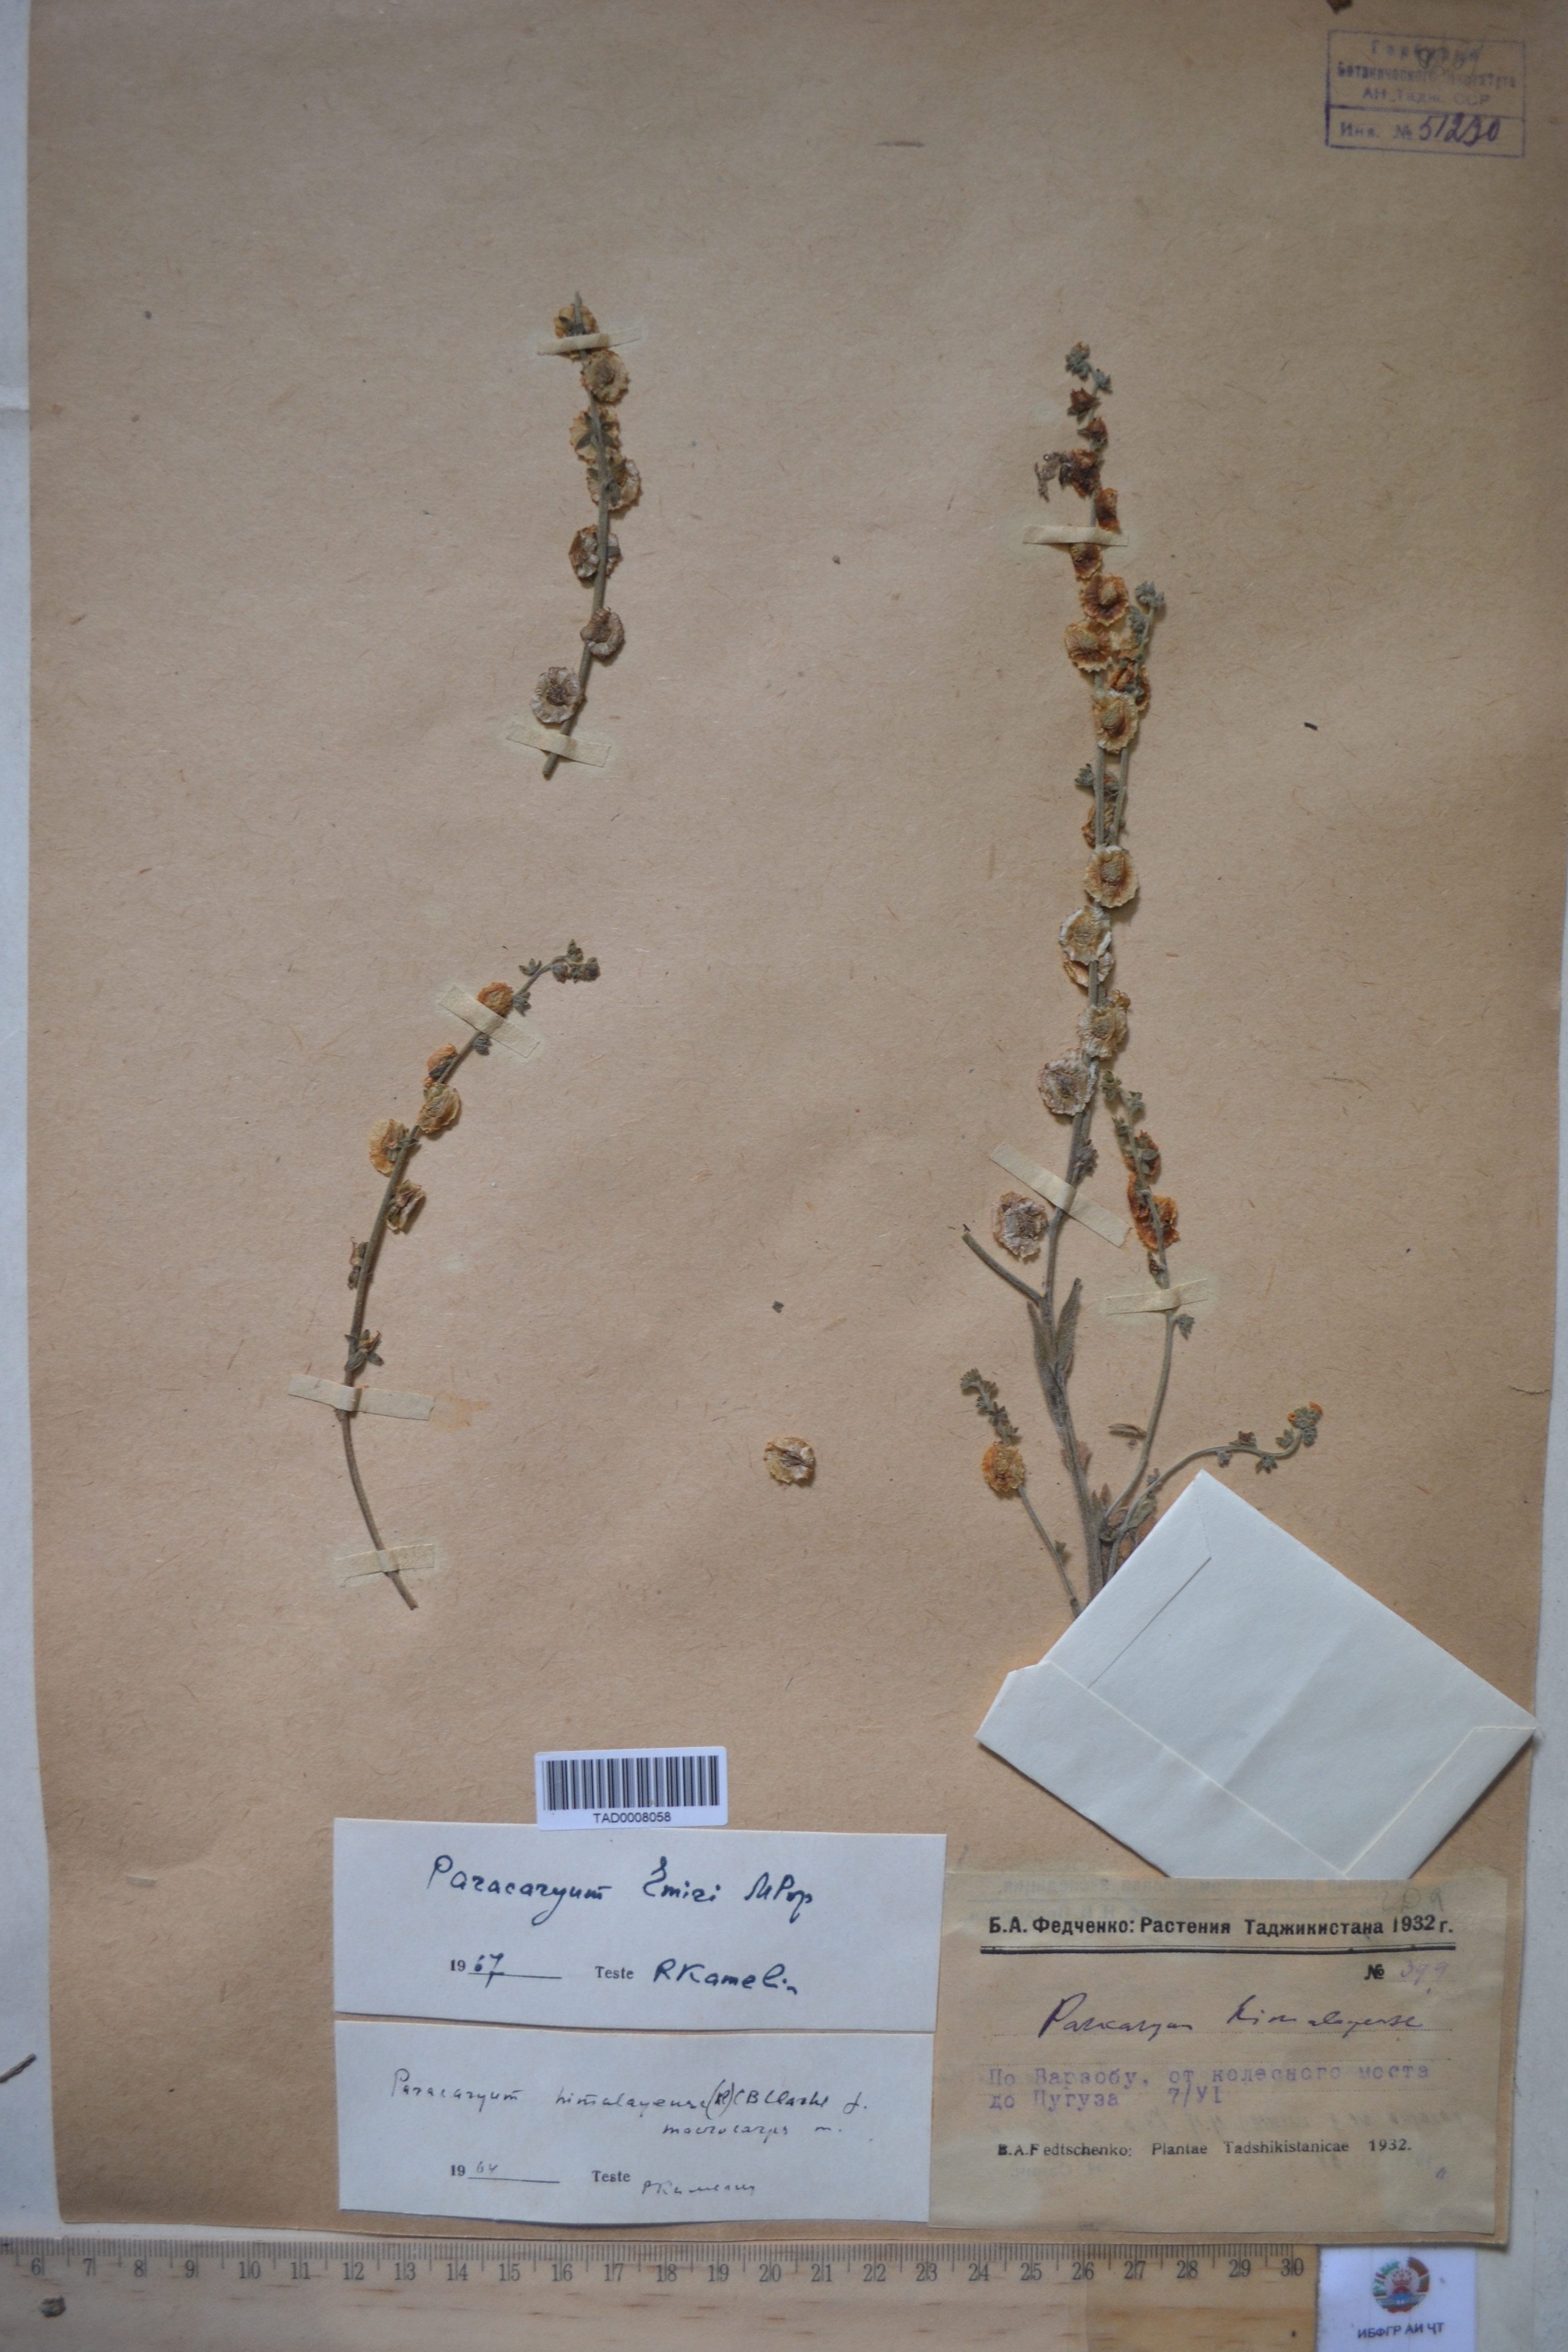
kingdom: Plantae
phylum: Tracheophyta
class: Magnoliopsida
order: Boraginales
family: Boraginaceae
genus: Paracaryum
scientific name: Paracaryum himalayense
